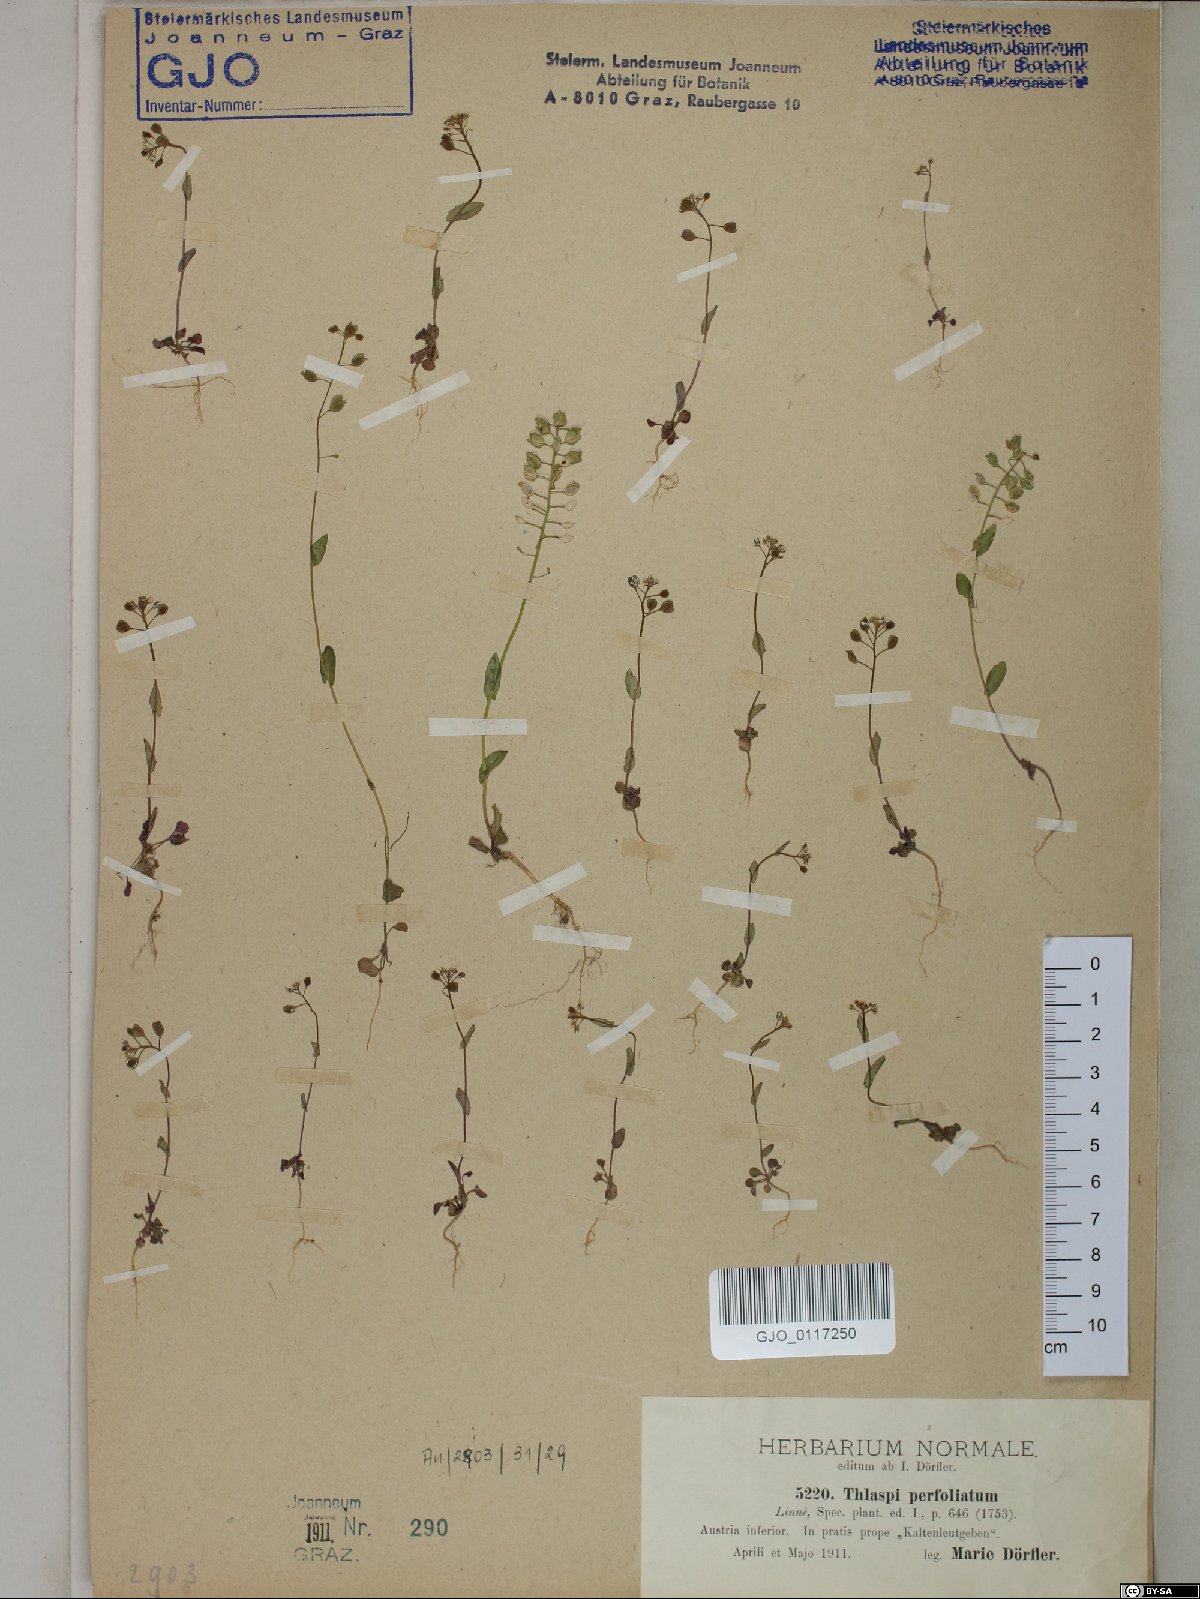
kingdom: Plantae
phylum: Tracheophyta
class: Magnoliopsida
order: Brassicales
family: Brassicaceae
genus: Noccaea
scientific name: Noccaea perfoliata
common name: Perfoliate pennycress
